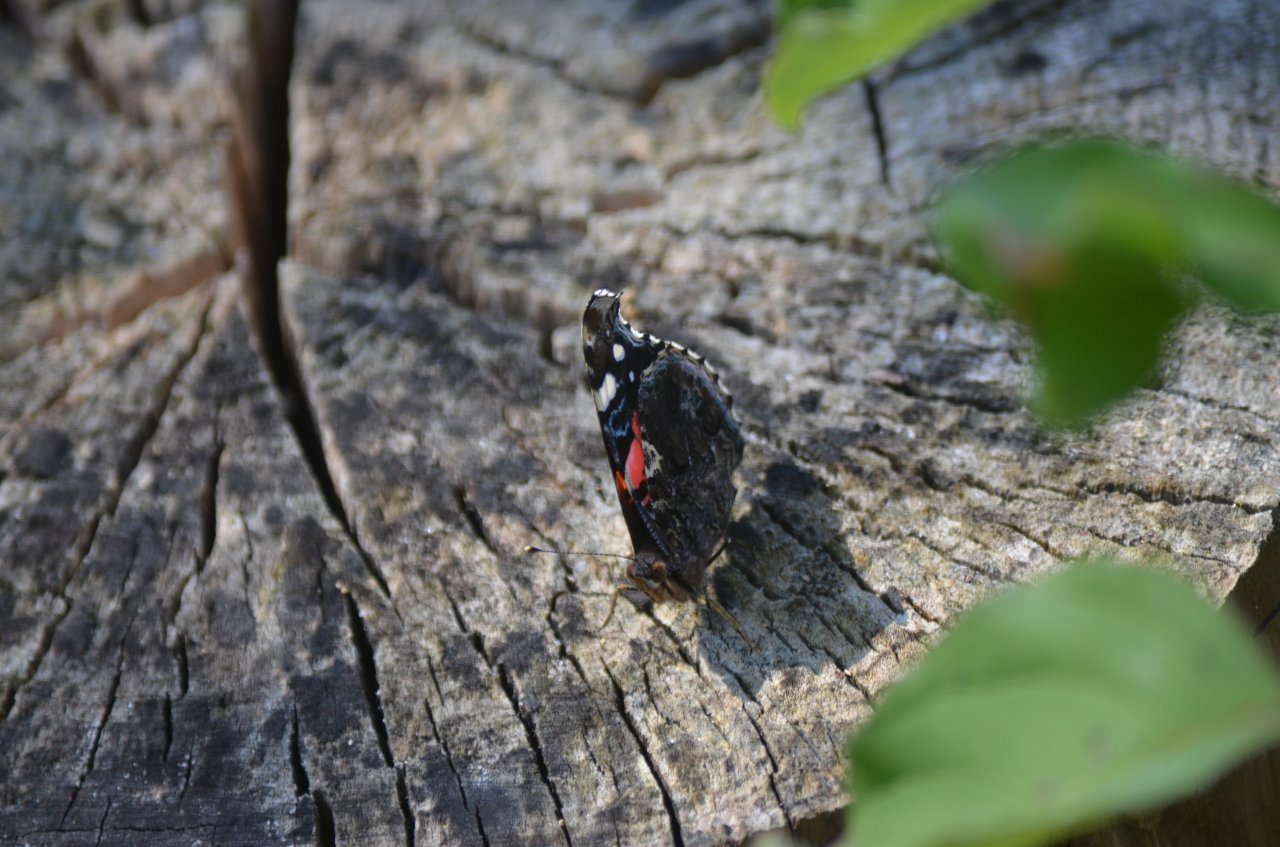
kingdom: Animalia
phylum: Arthropoda
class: Insecta
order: Lepidoptera
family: Nymphalidae
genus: Vanessa
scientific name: Vanessa atalanta
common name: Red Admiral
